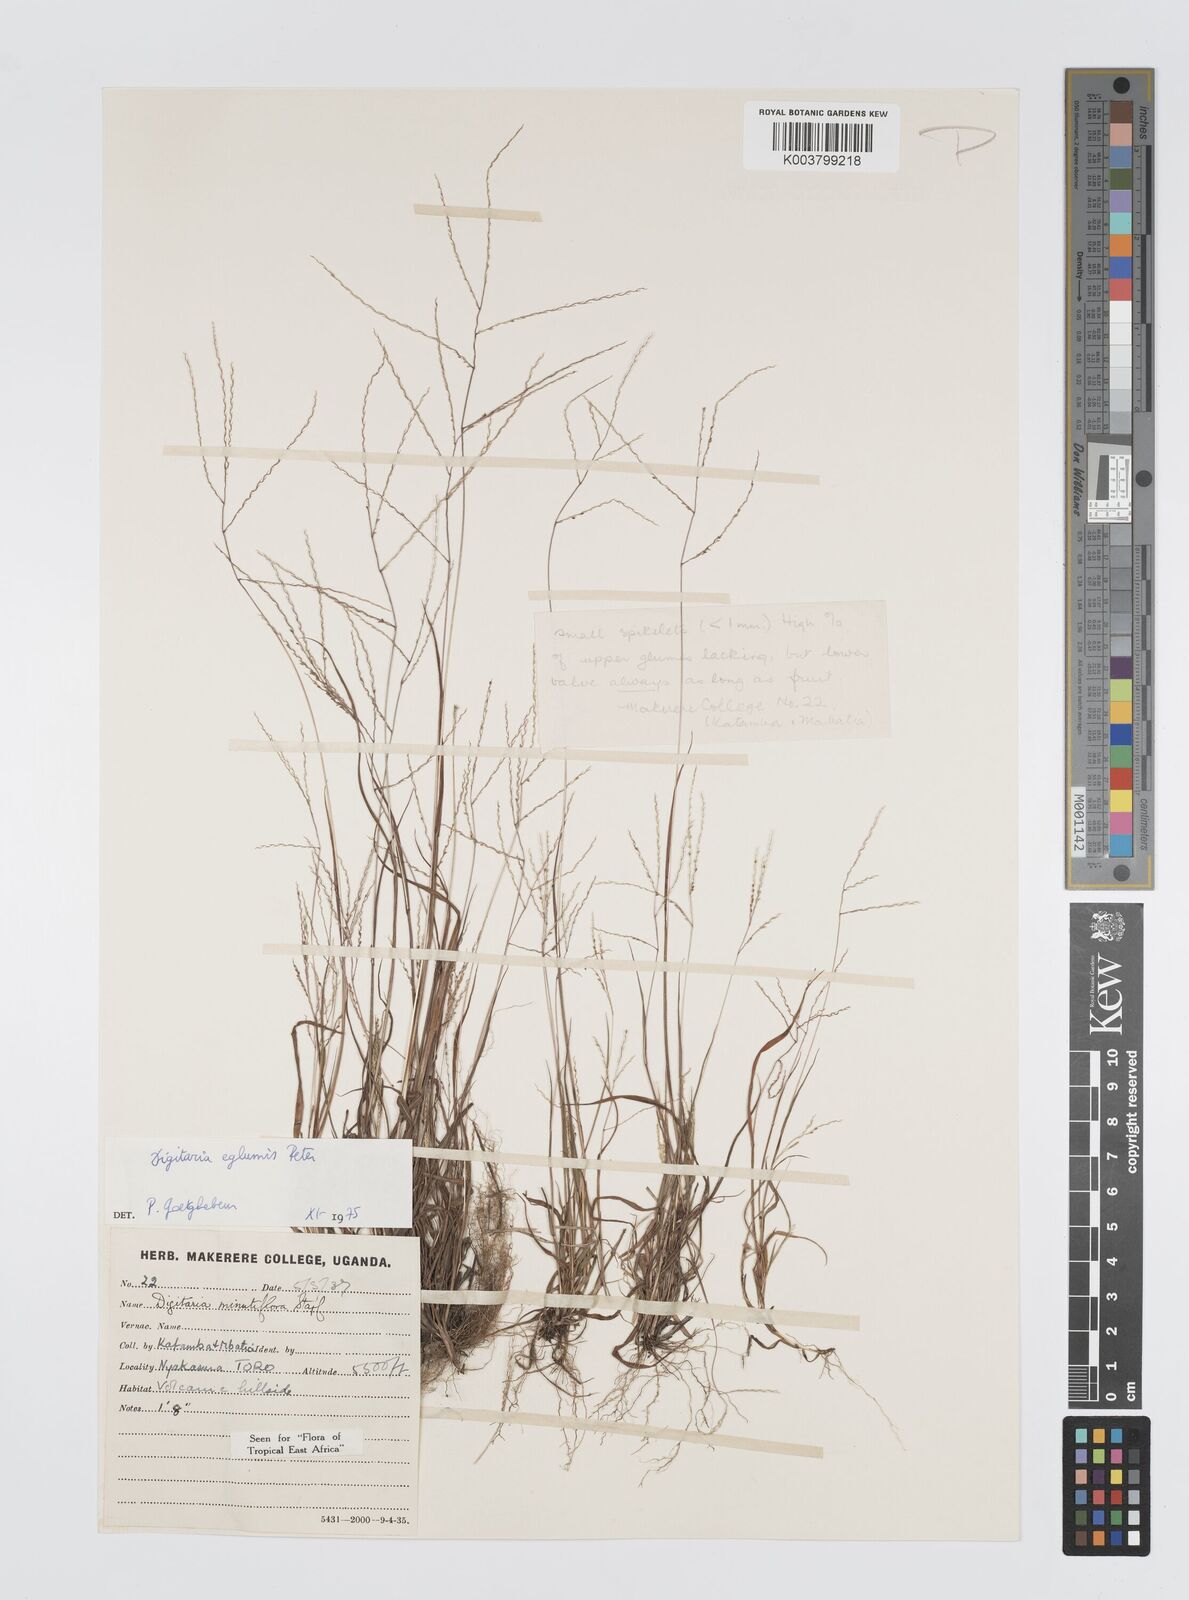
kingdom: Plantae
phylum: Tracheophyta
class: Liliopsida
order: Poales
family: Poaceae
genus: Digitaria
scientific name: Digitaria pseudodiagonalis
